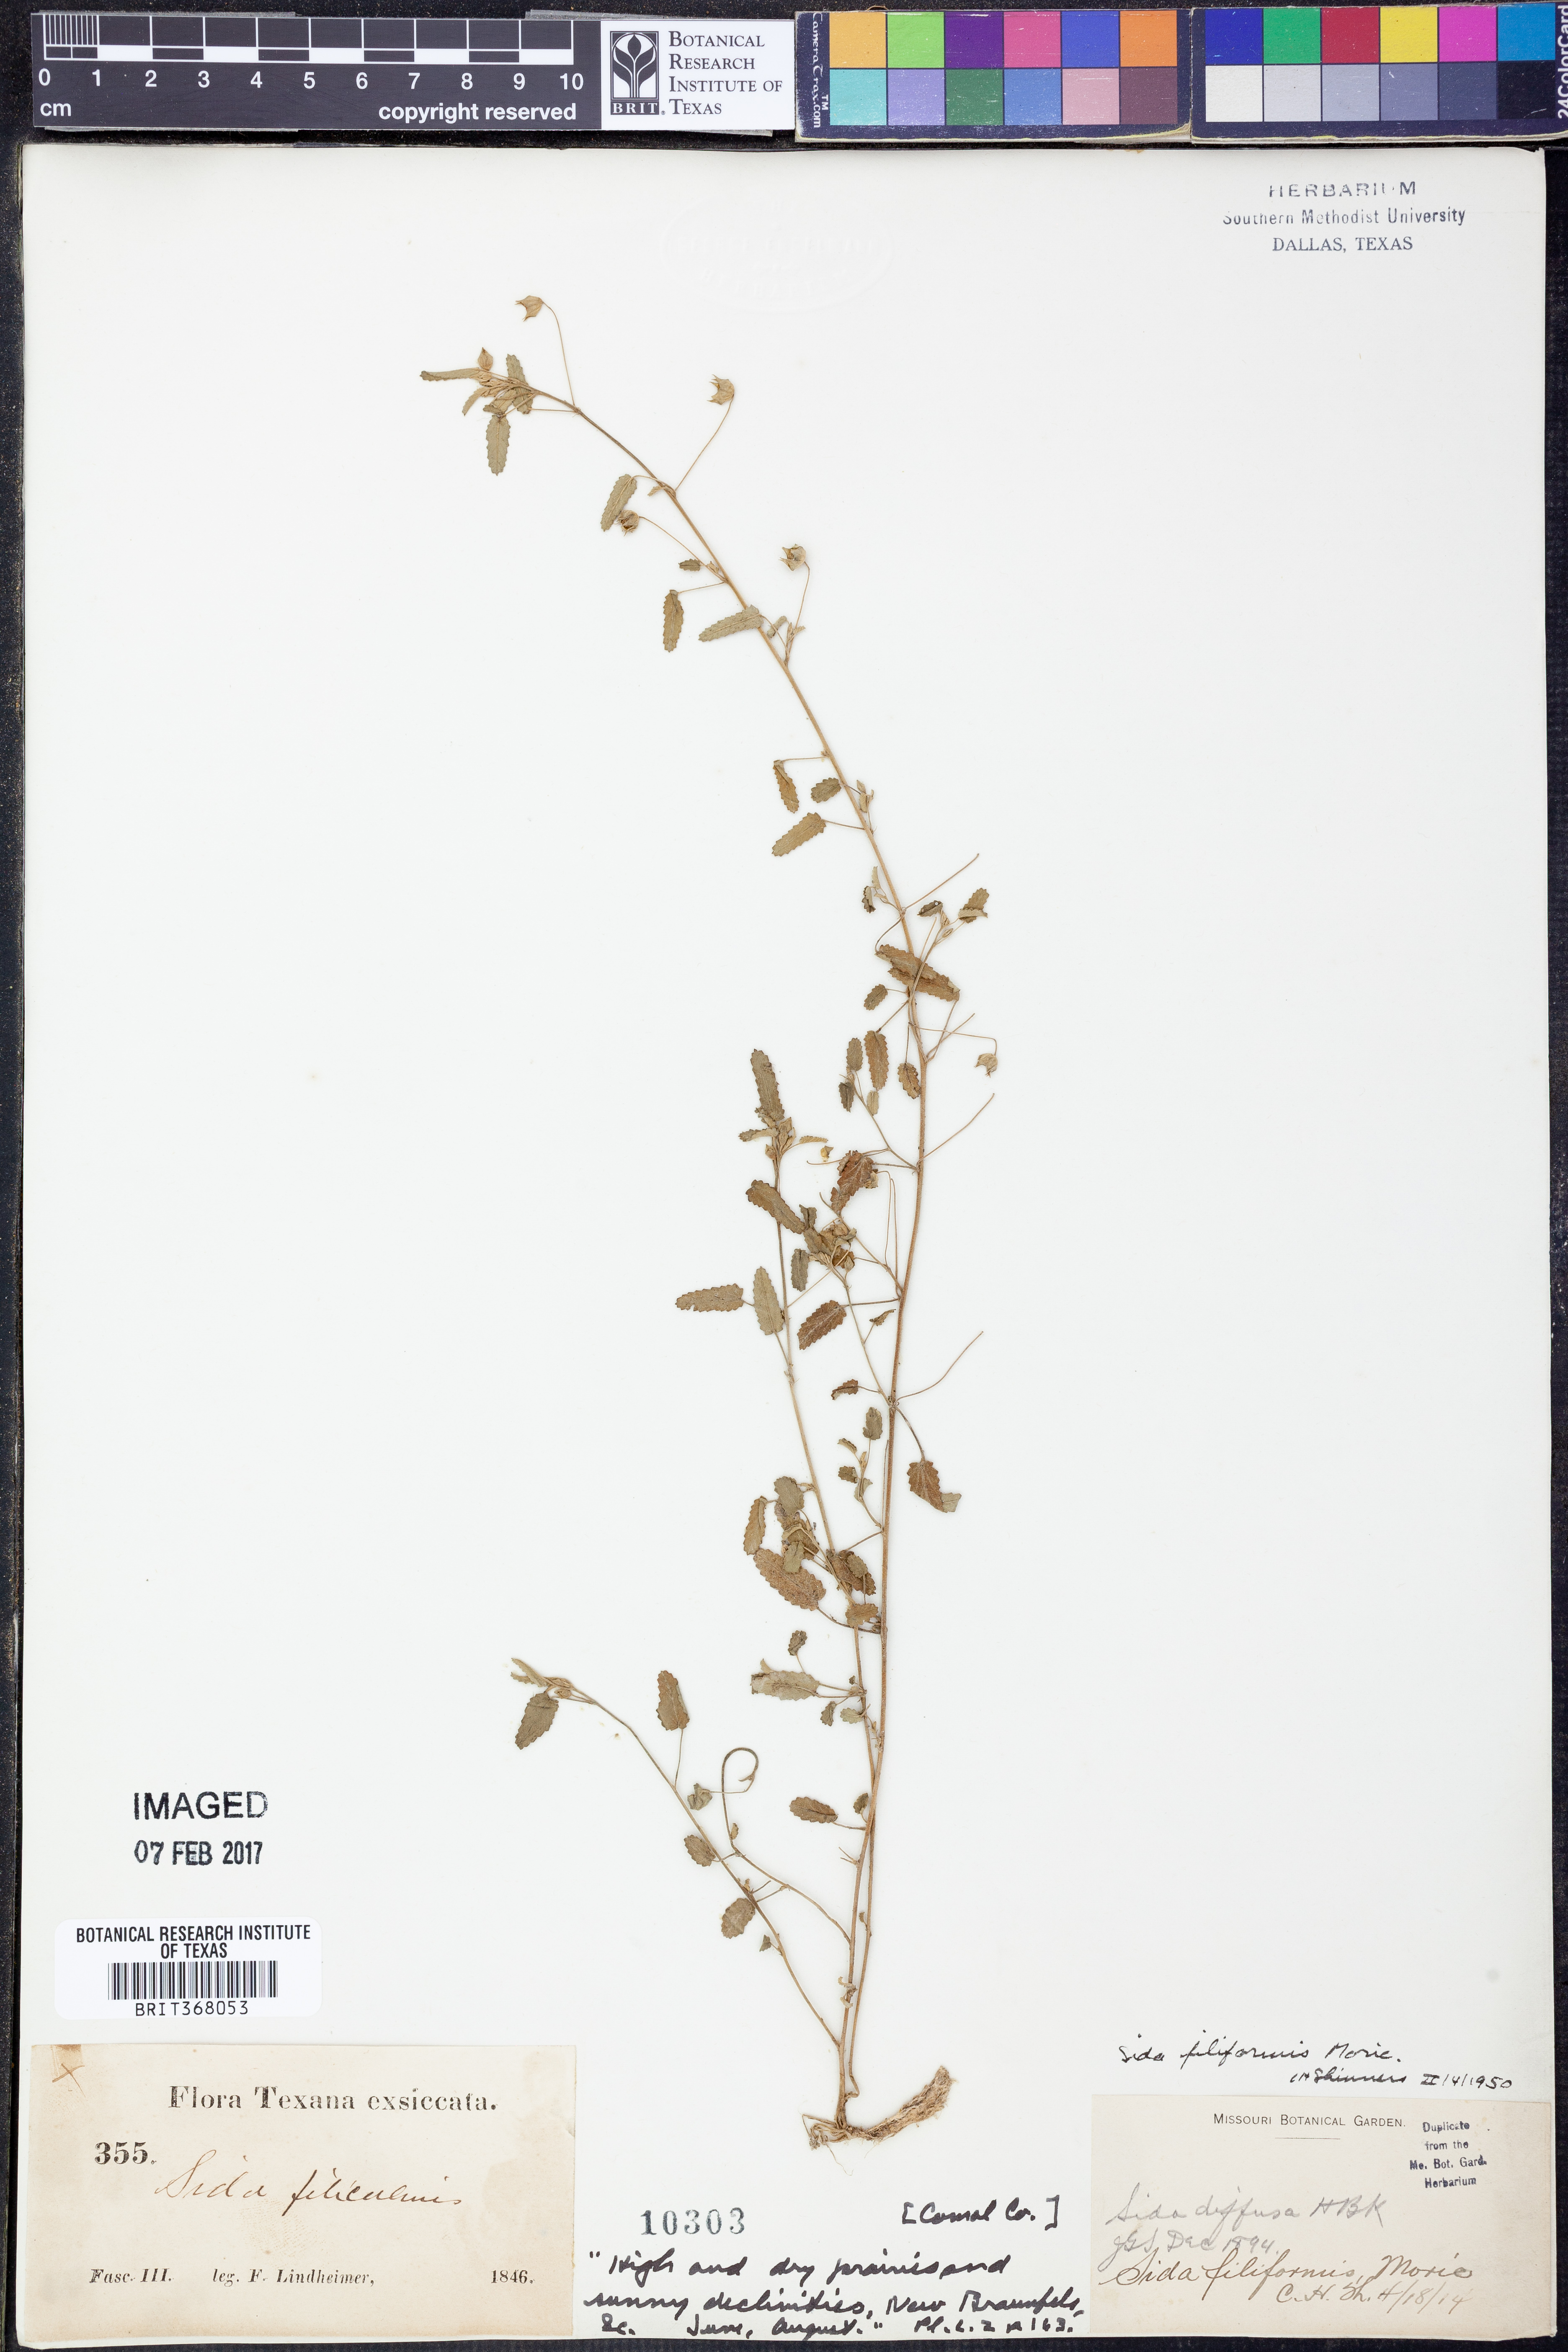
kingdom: Plantae
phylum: Tracheophyta
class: Magnoliopsida
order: Malvales
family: Malvaceae
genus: Sida
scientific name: Sida abutilifolia
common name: Spreading fanpetals
